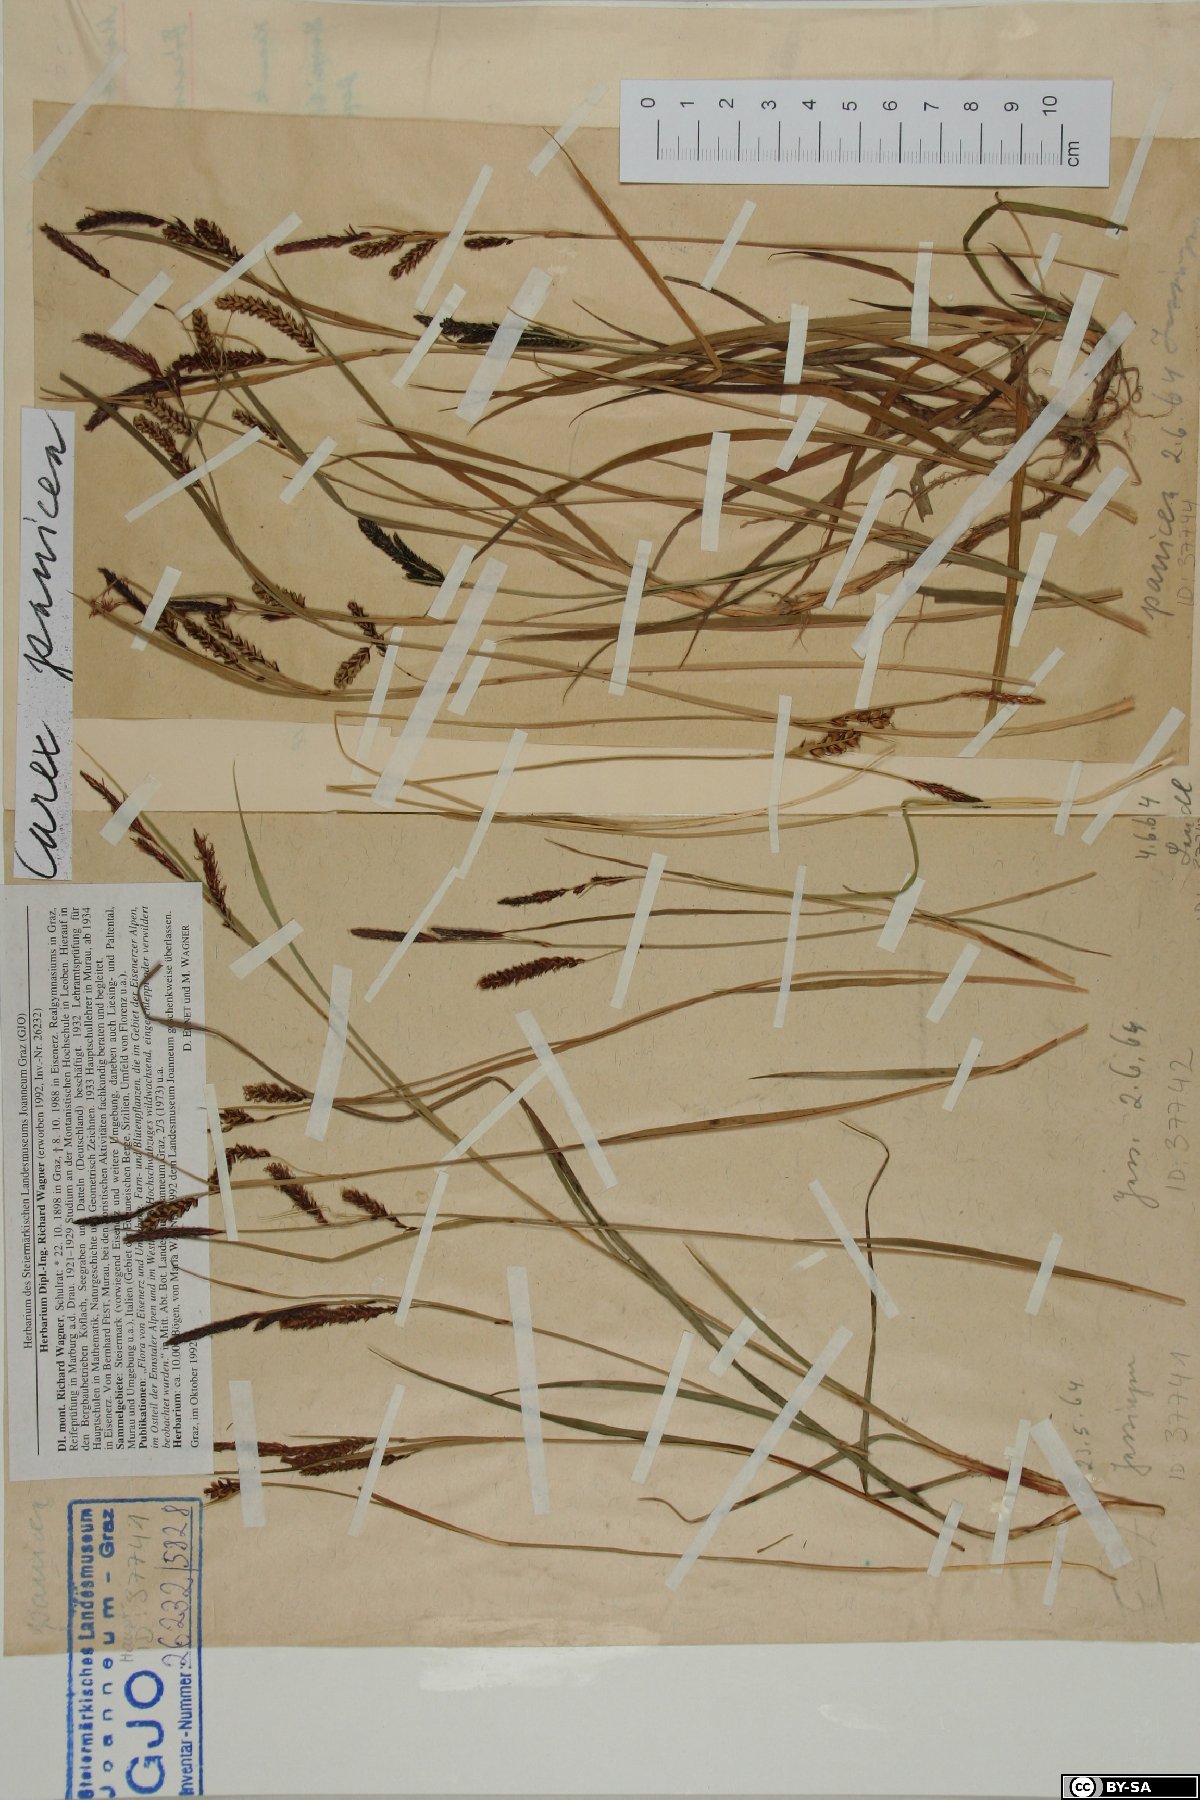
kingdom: Plantae
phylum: Tracheophyta
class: Liliopsida
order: Poales
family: Cyperaceae
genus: Carex
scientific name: Carex panicea
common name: Carnation sedge
